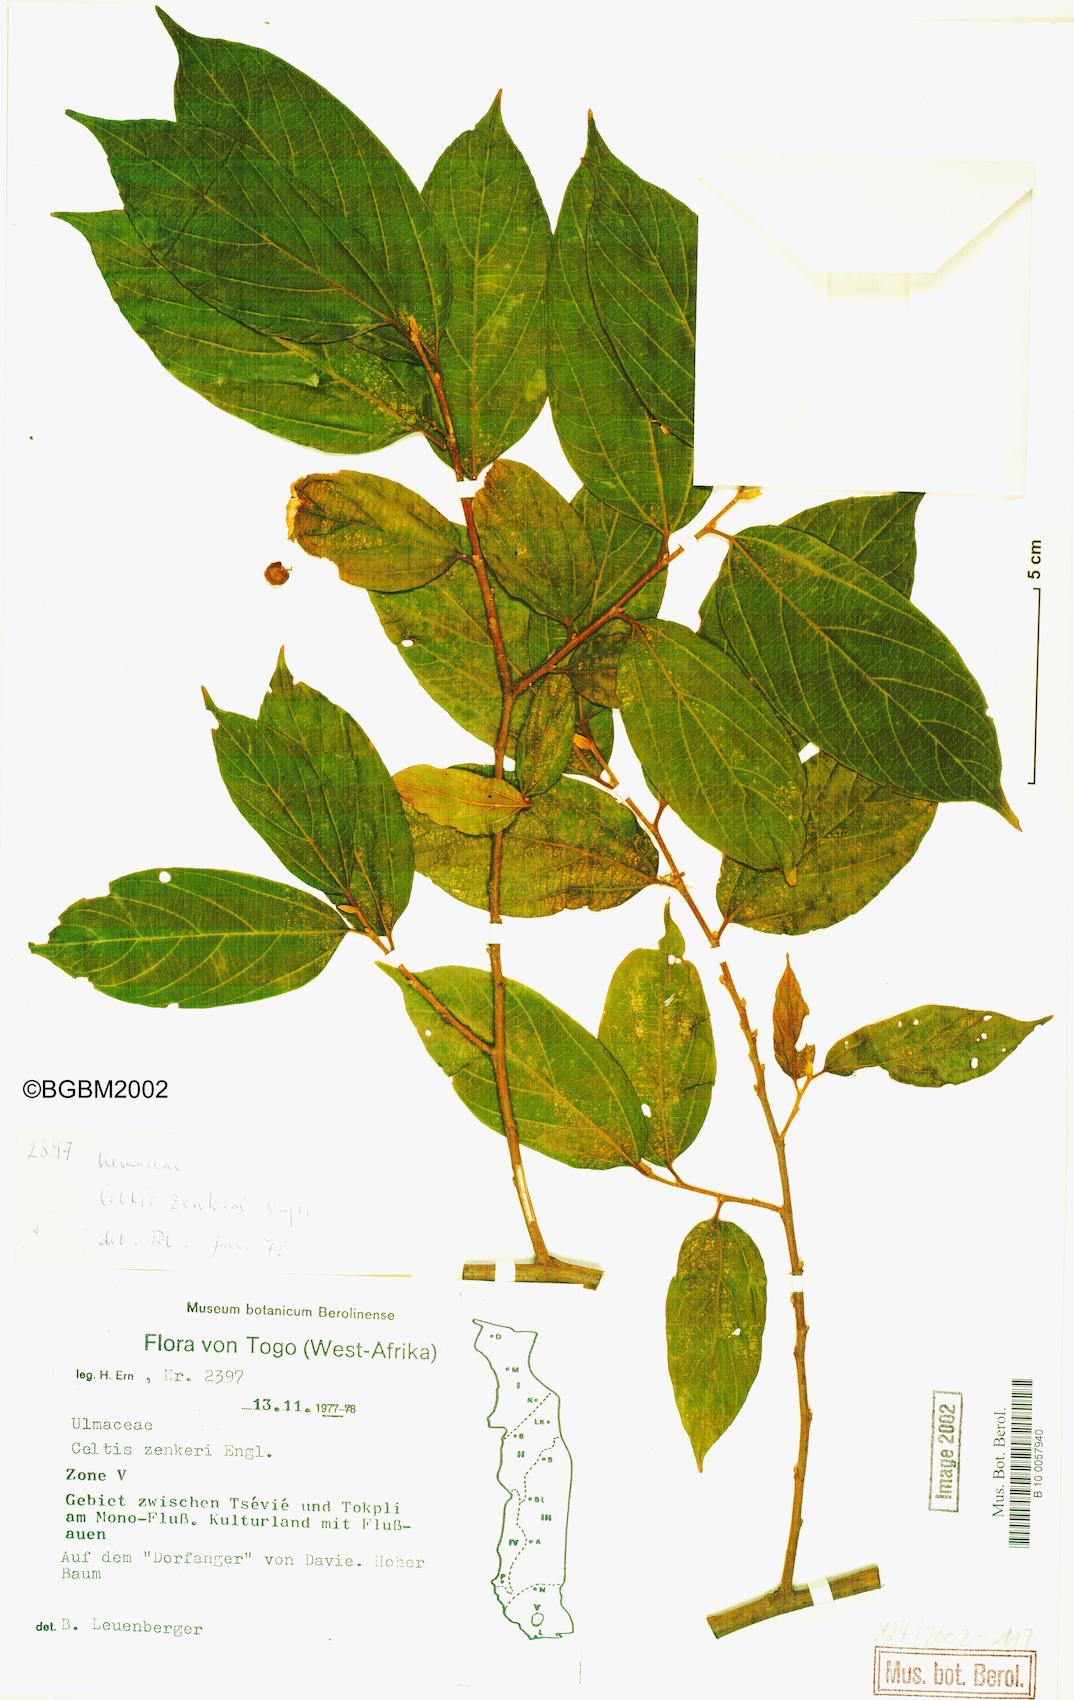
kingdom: Plantae
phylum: Tracheophyta
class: Magnoliopsida
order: Rosales
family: Cannabaceae
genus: Celtis
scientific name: Celtis zenkeri
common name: African celtis
